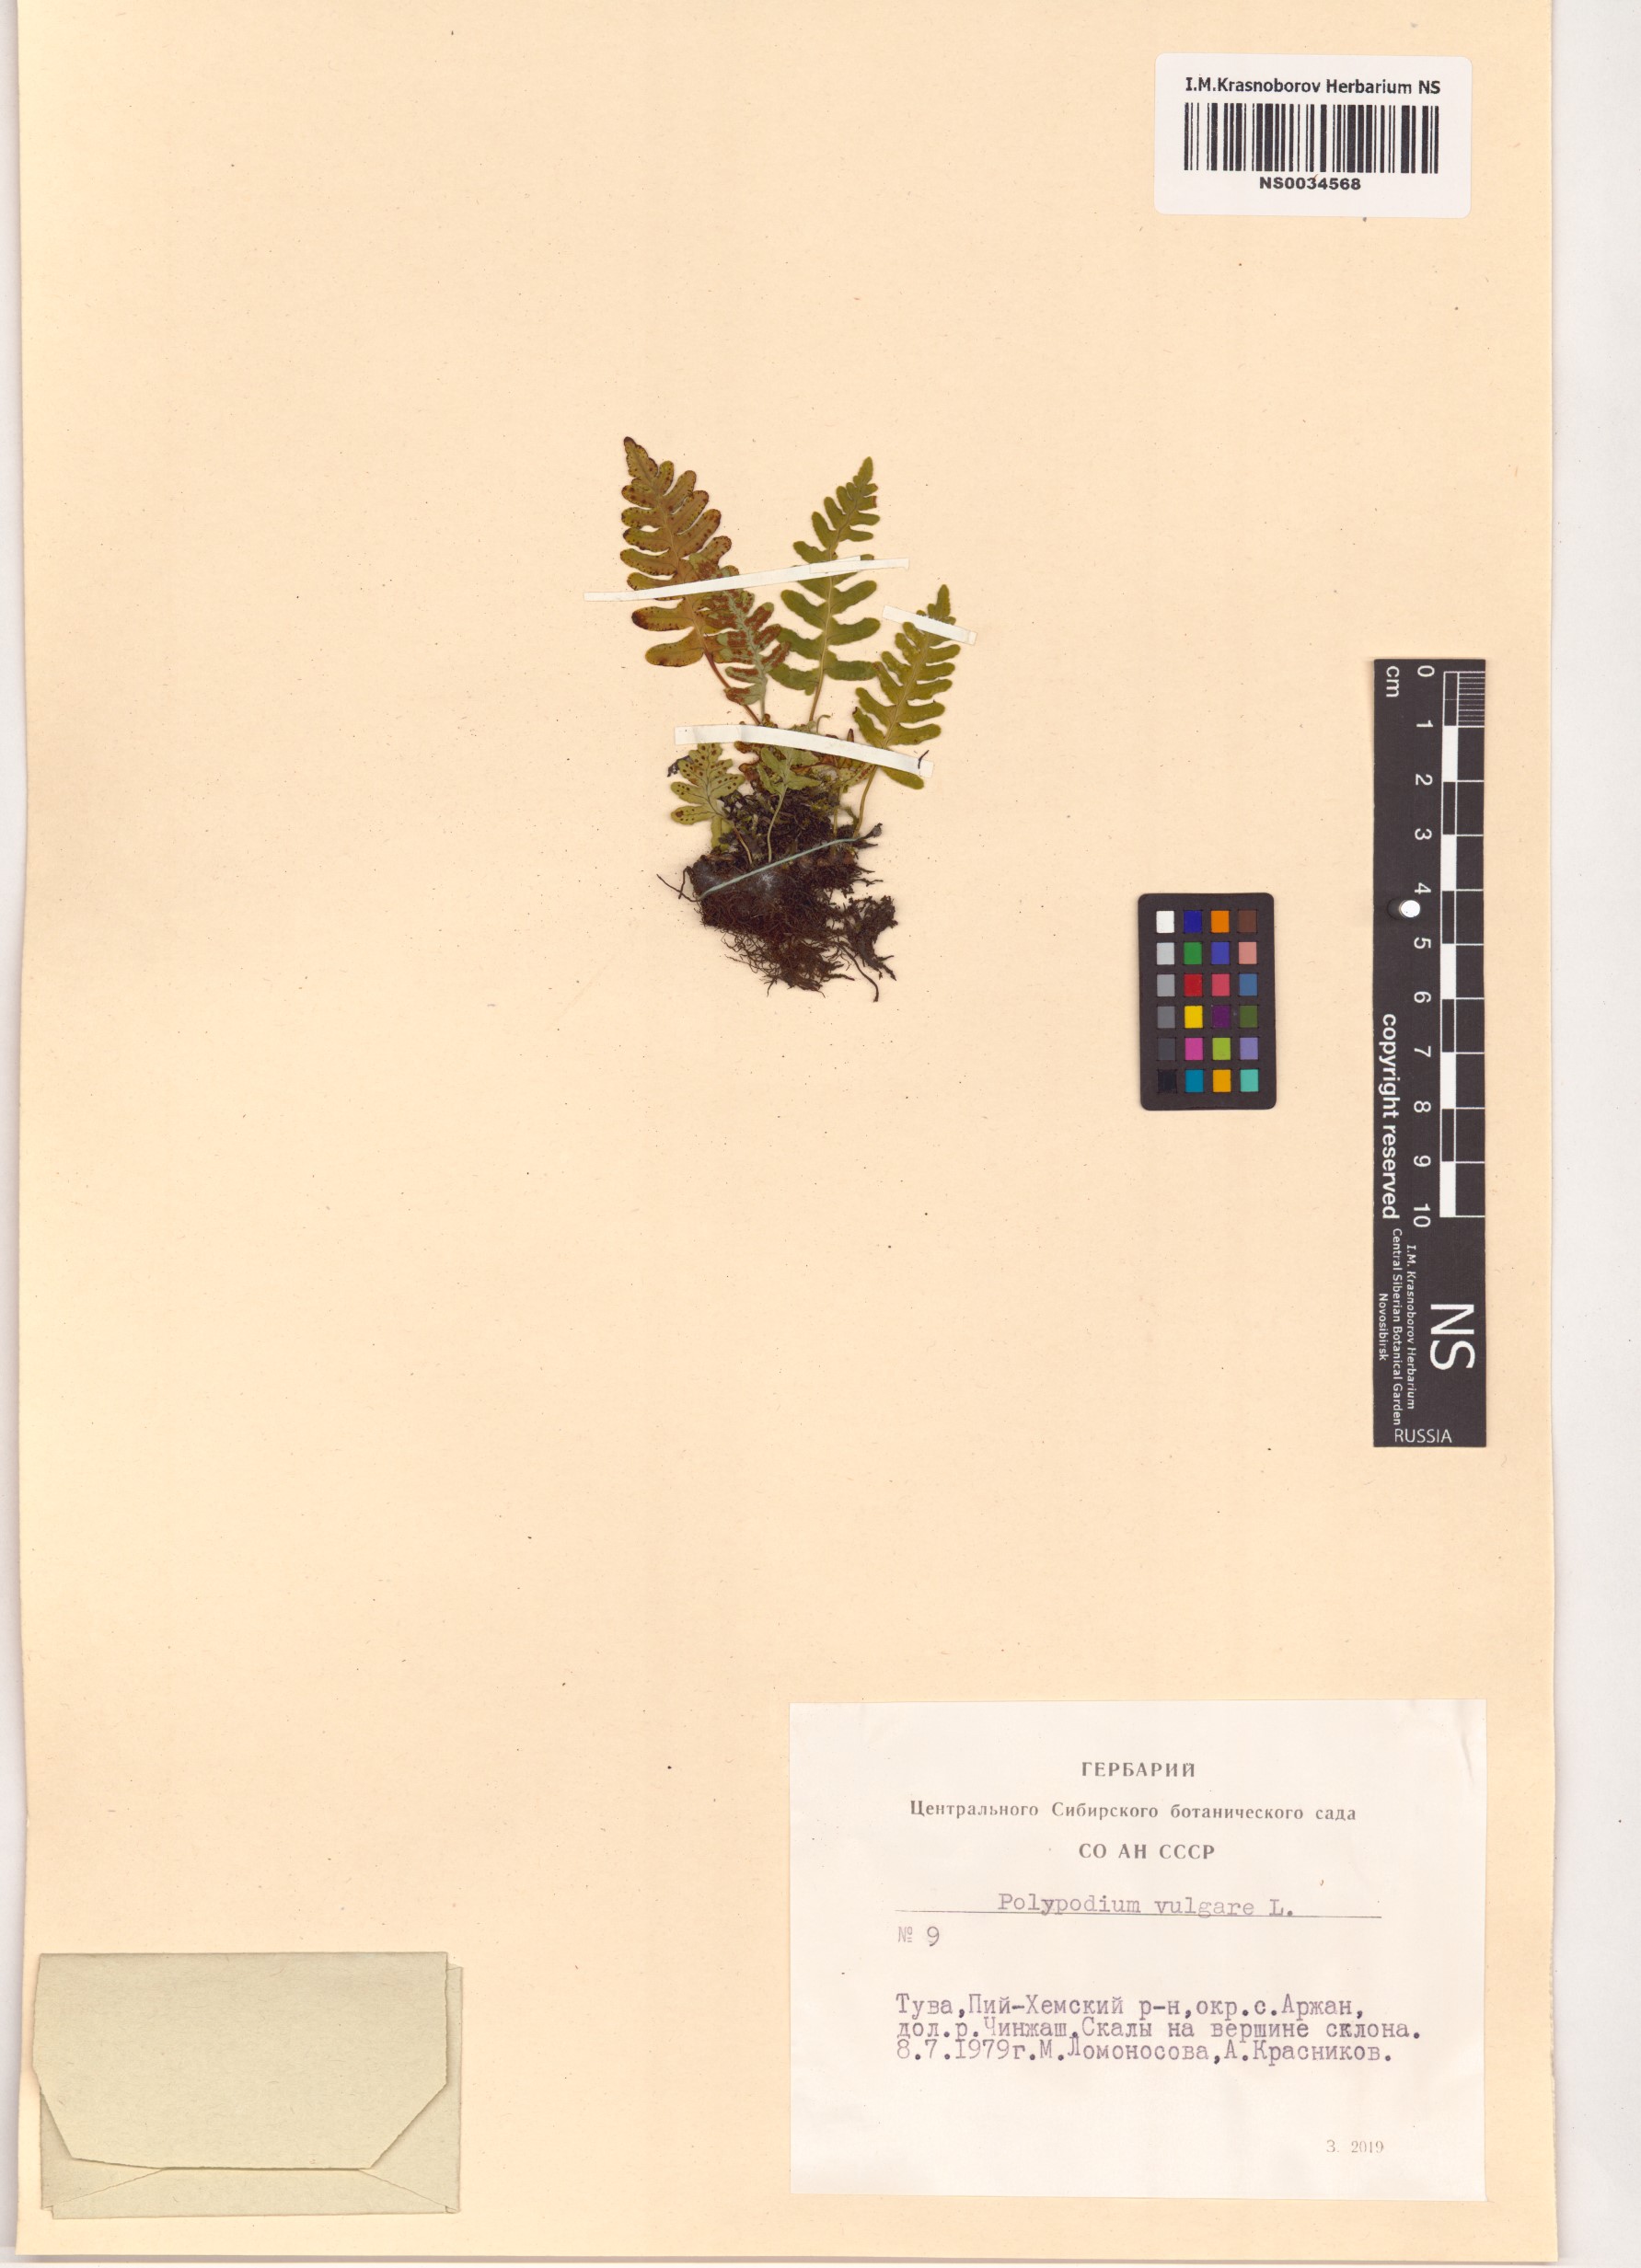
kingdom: Plantae
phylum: Tracheophyta
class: Polypodiopsida
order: Polypodiales
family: Polypodiaceae
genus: Polypodium
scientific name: Polypodium vulgare
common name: Common polypody
